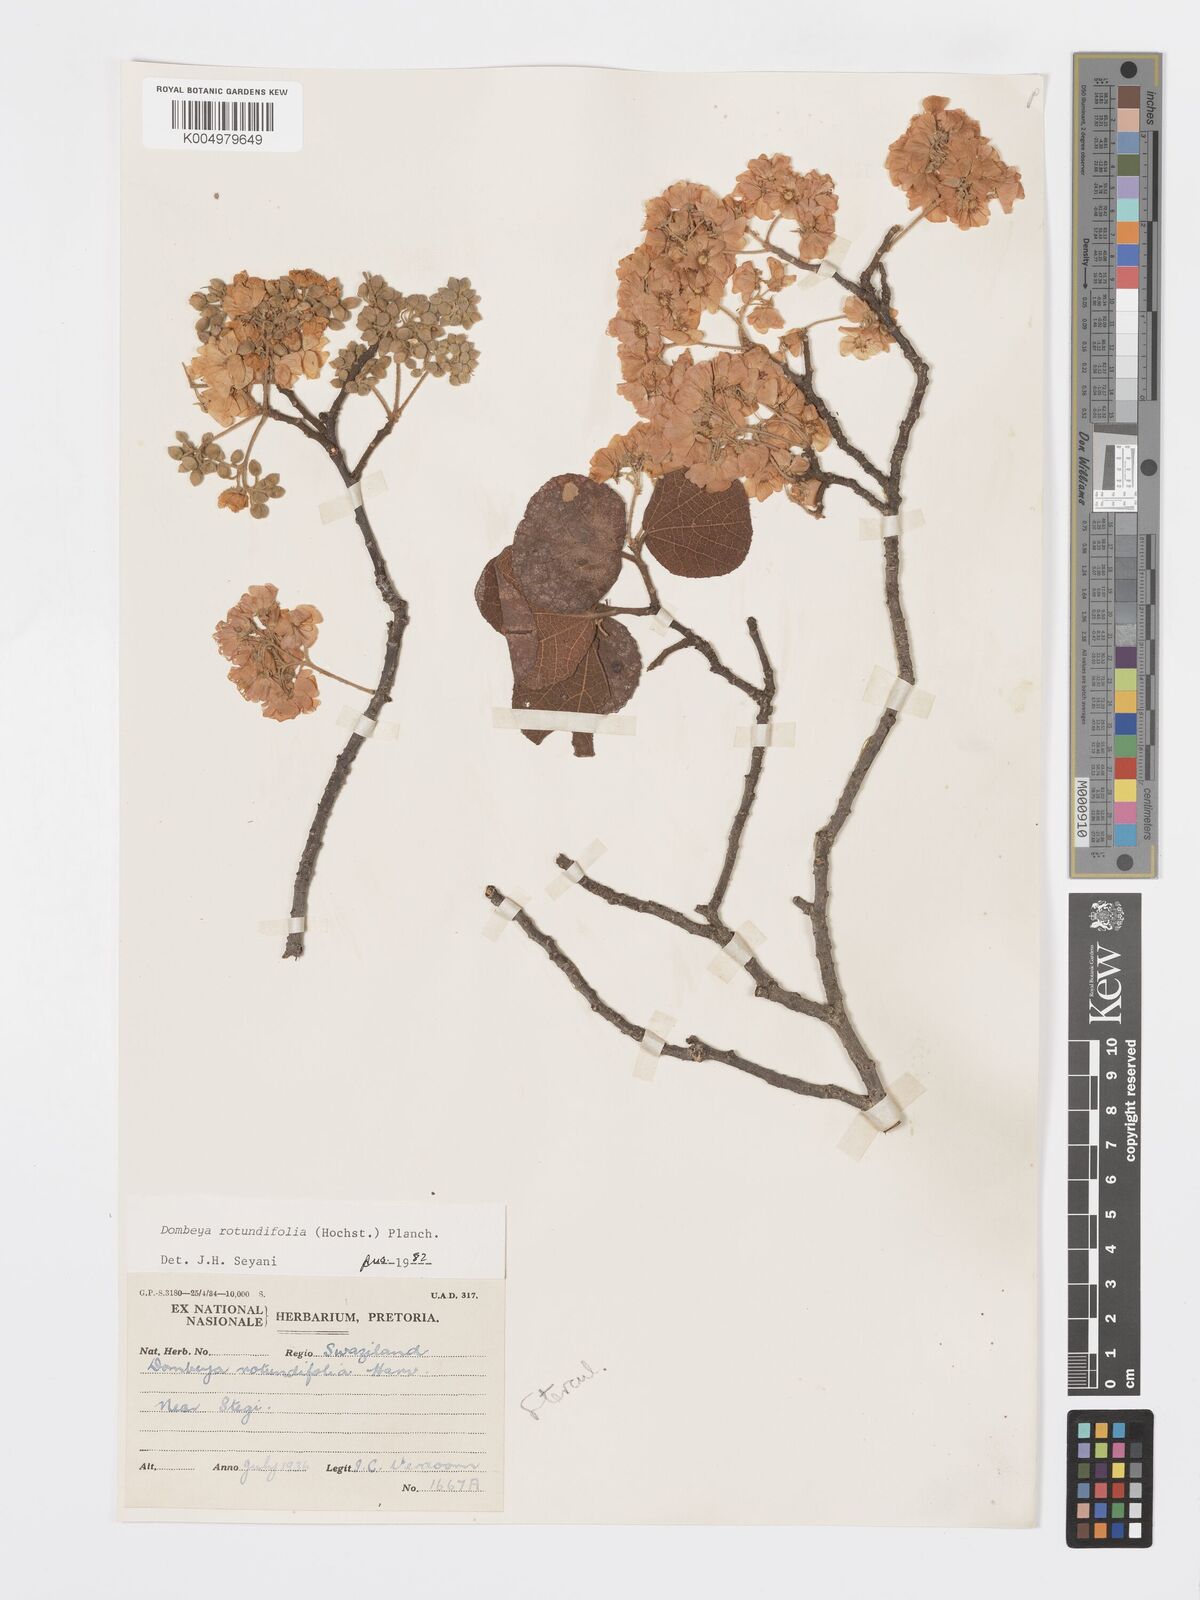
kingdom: Plantae
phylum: Tracheophyta
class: Magnoliopsida
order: Malvales
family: Malvaceae
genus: Dombeya
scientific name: Dombeya rotundifolia
